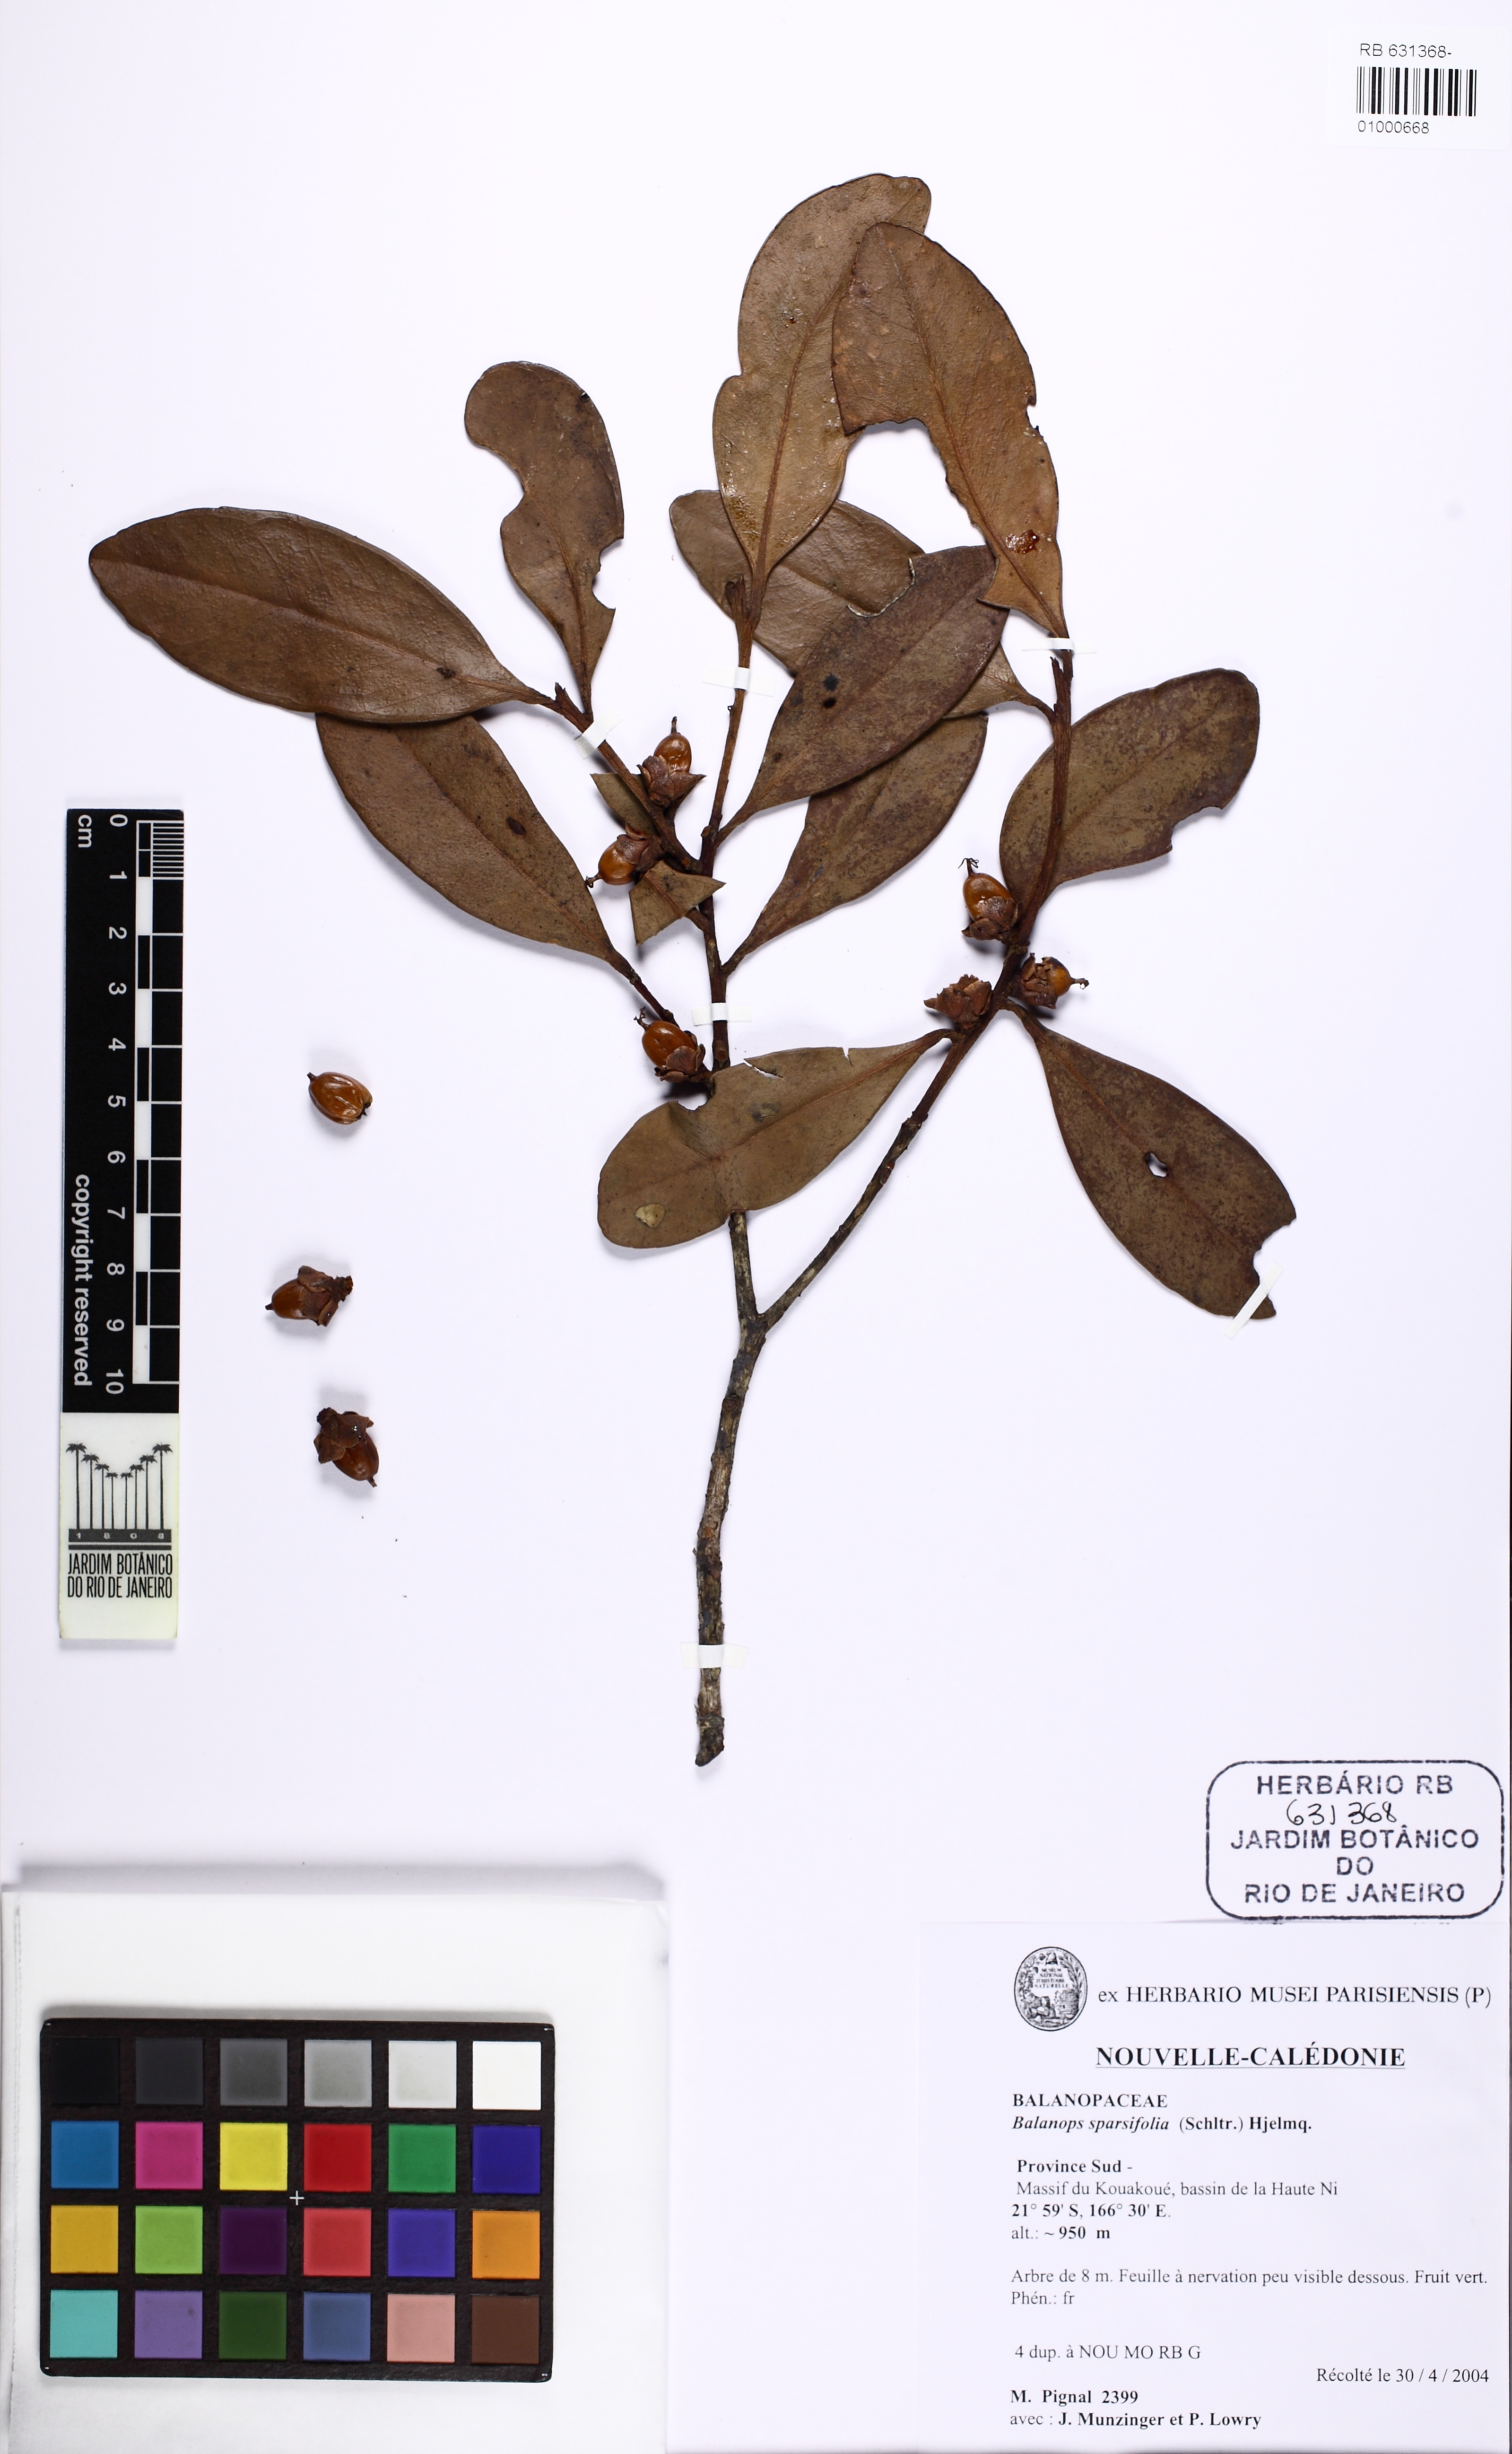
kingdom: Plantae
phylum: Tracheophyta
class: Magnoliopsida
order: Malpighiales
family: Balanopaceae
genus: Balanops
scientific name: Balanops sparsifolia
